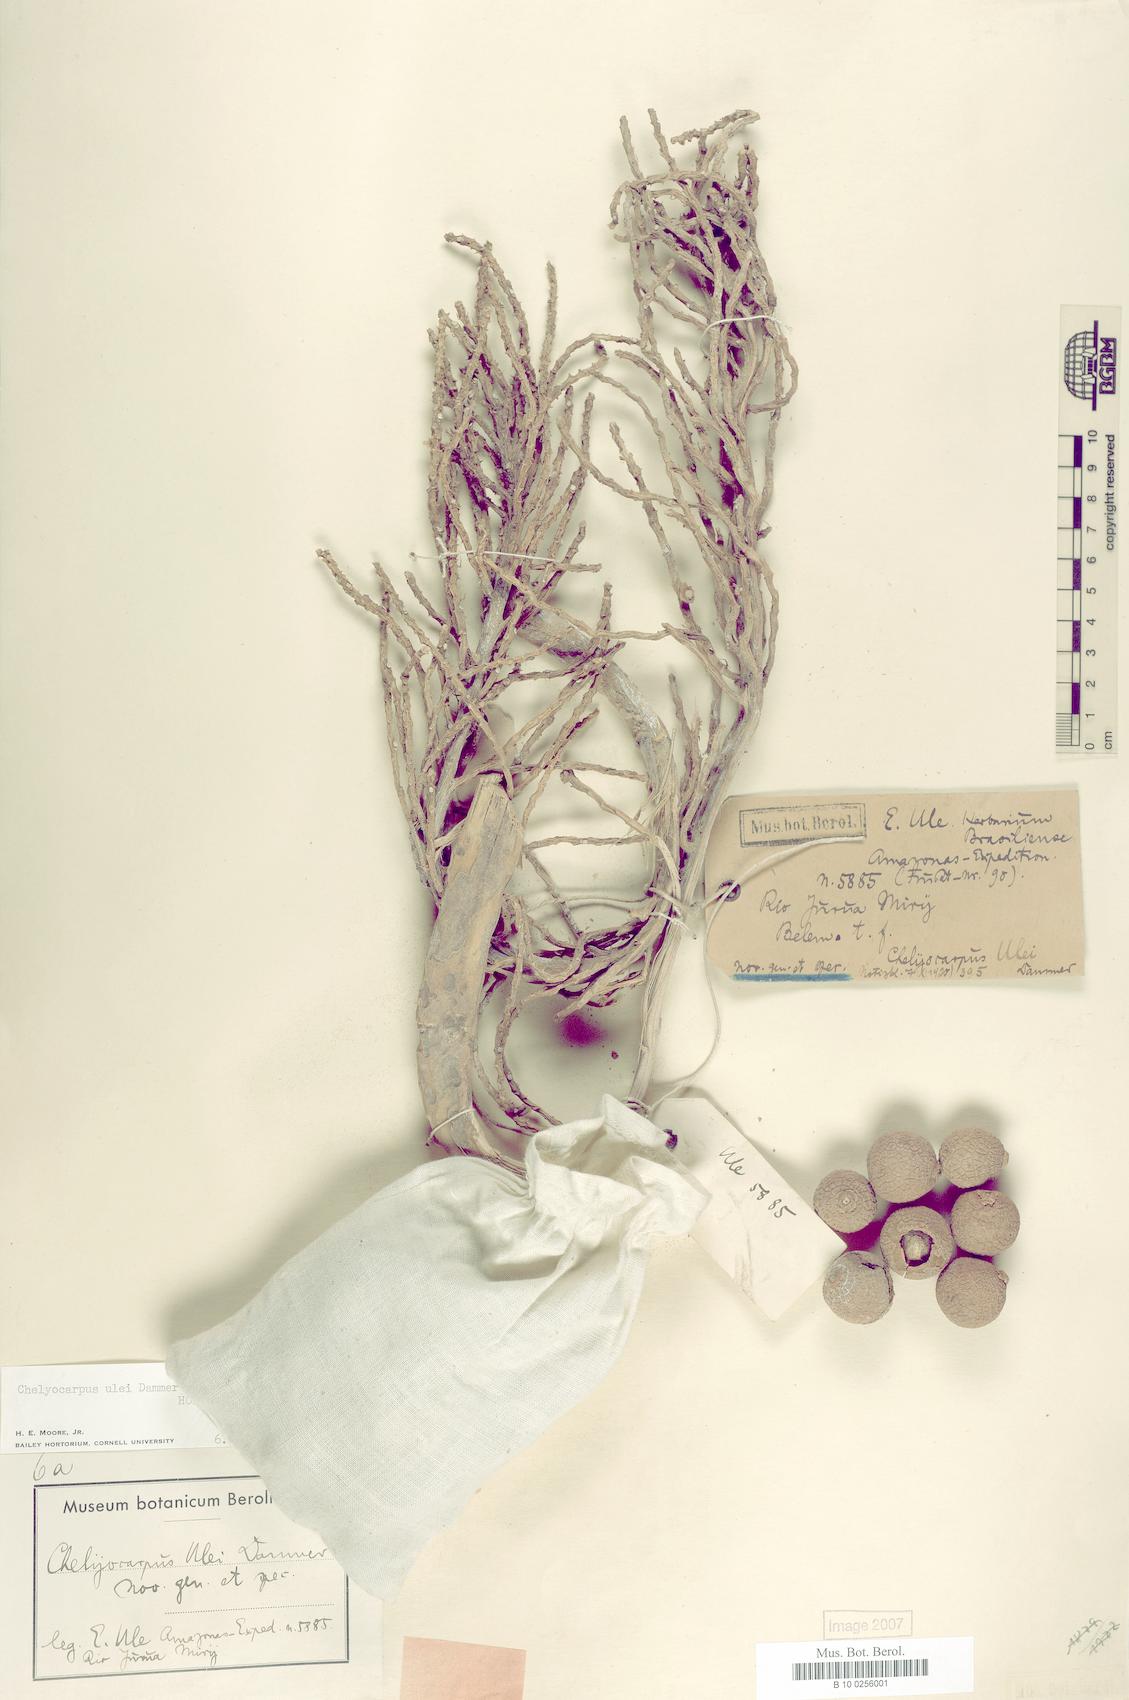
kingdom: Plantae
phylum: Tracheophyta
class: Liliopsida
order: Arecales
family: Arecaceae
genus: Chelyocarpus
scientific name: Chelyocarpus ulei
